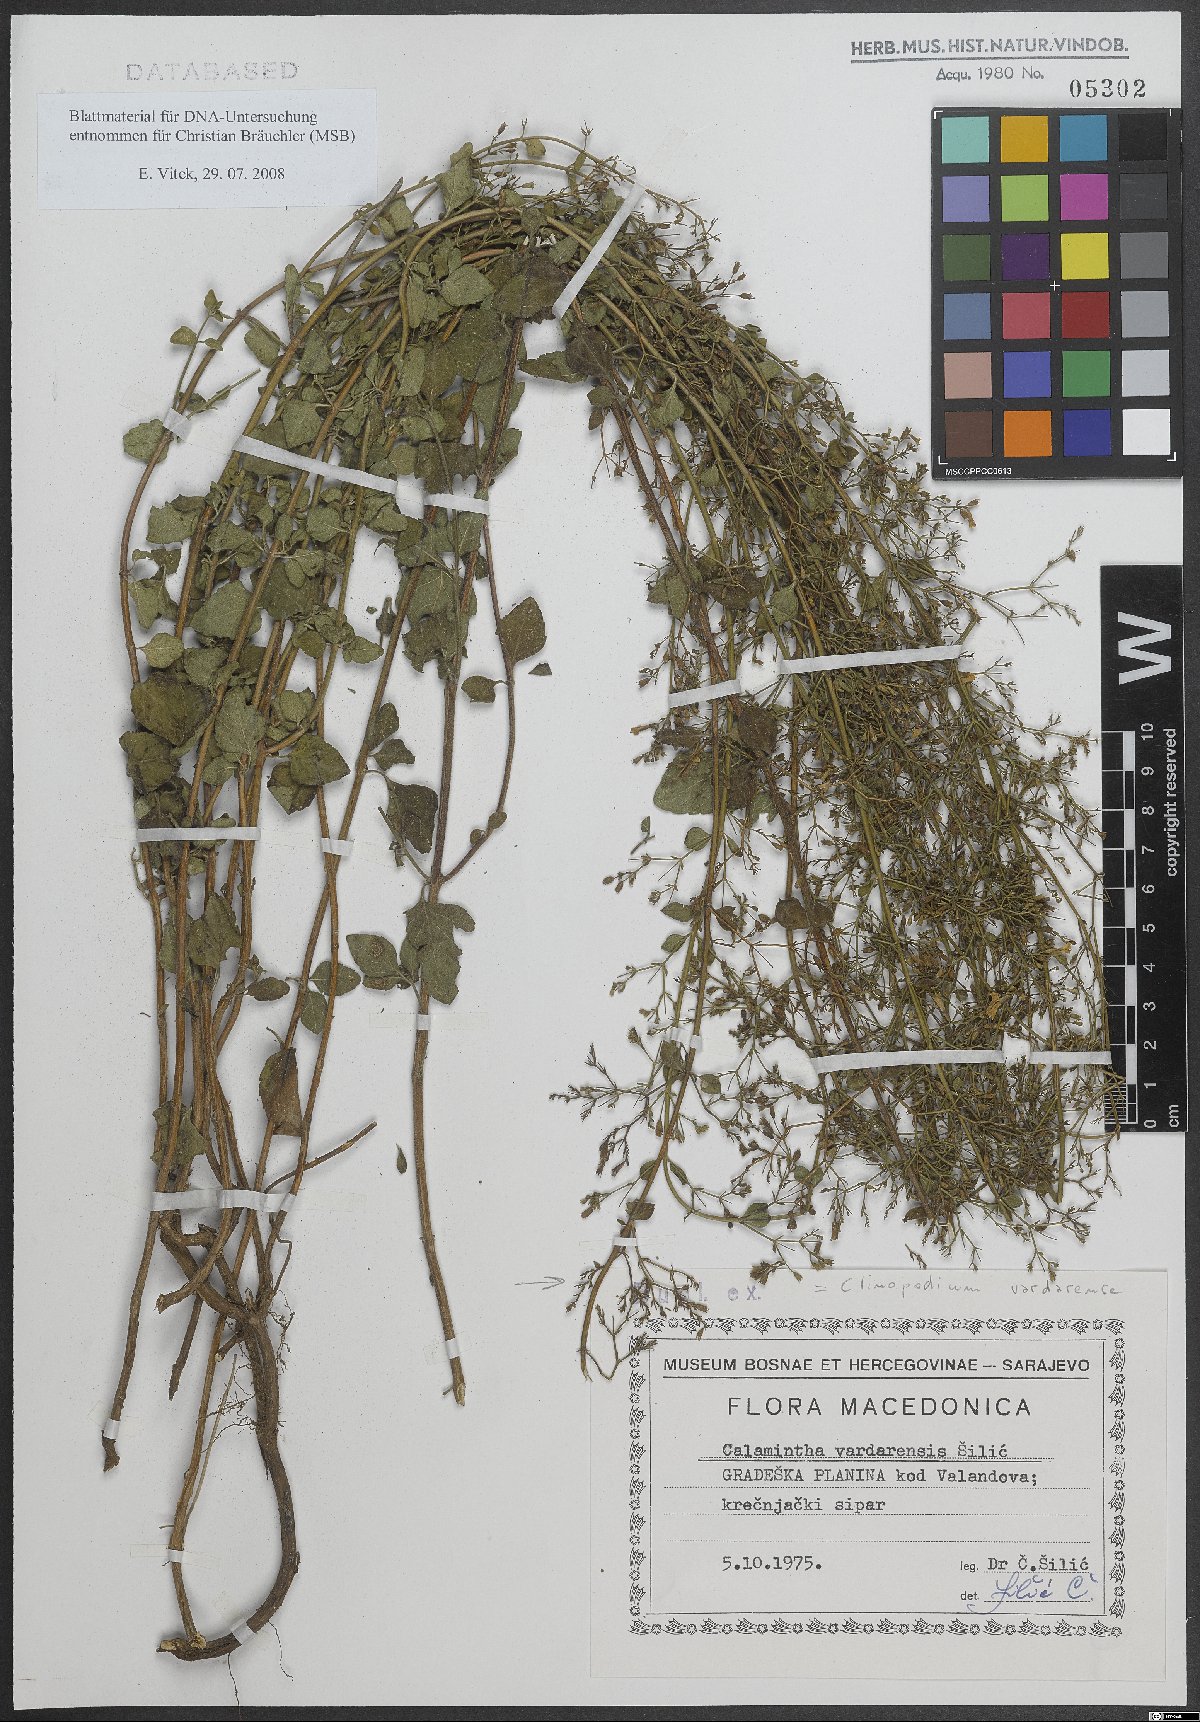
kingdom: Plantae
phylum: Tracheophyta
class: Magnoliopsida
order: Lamiales
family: Lamiaceae
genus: Clinopodium
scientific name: Clinopodium vardarense
